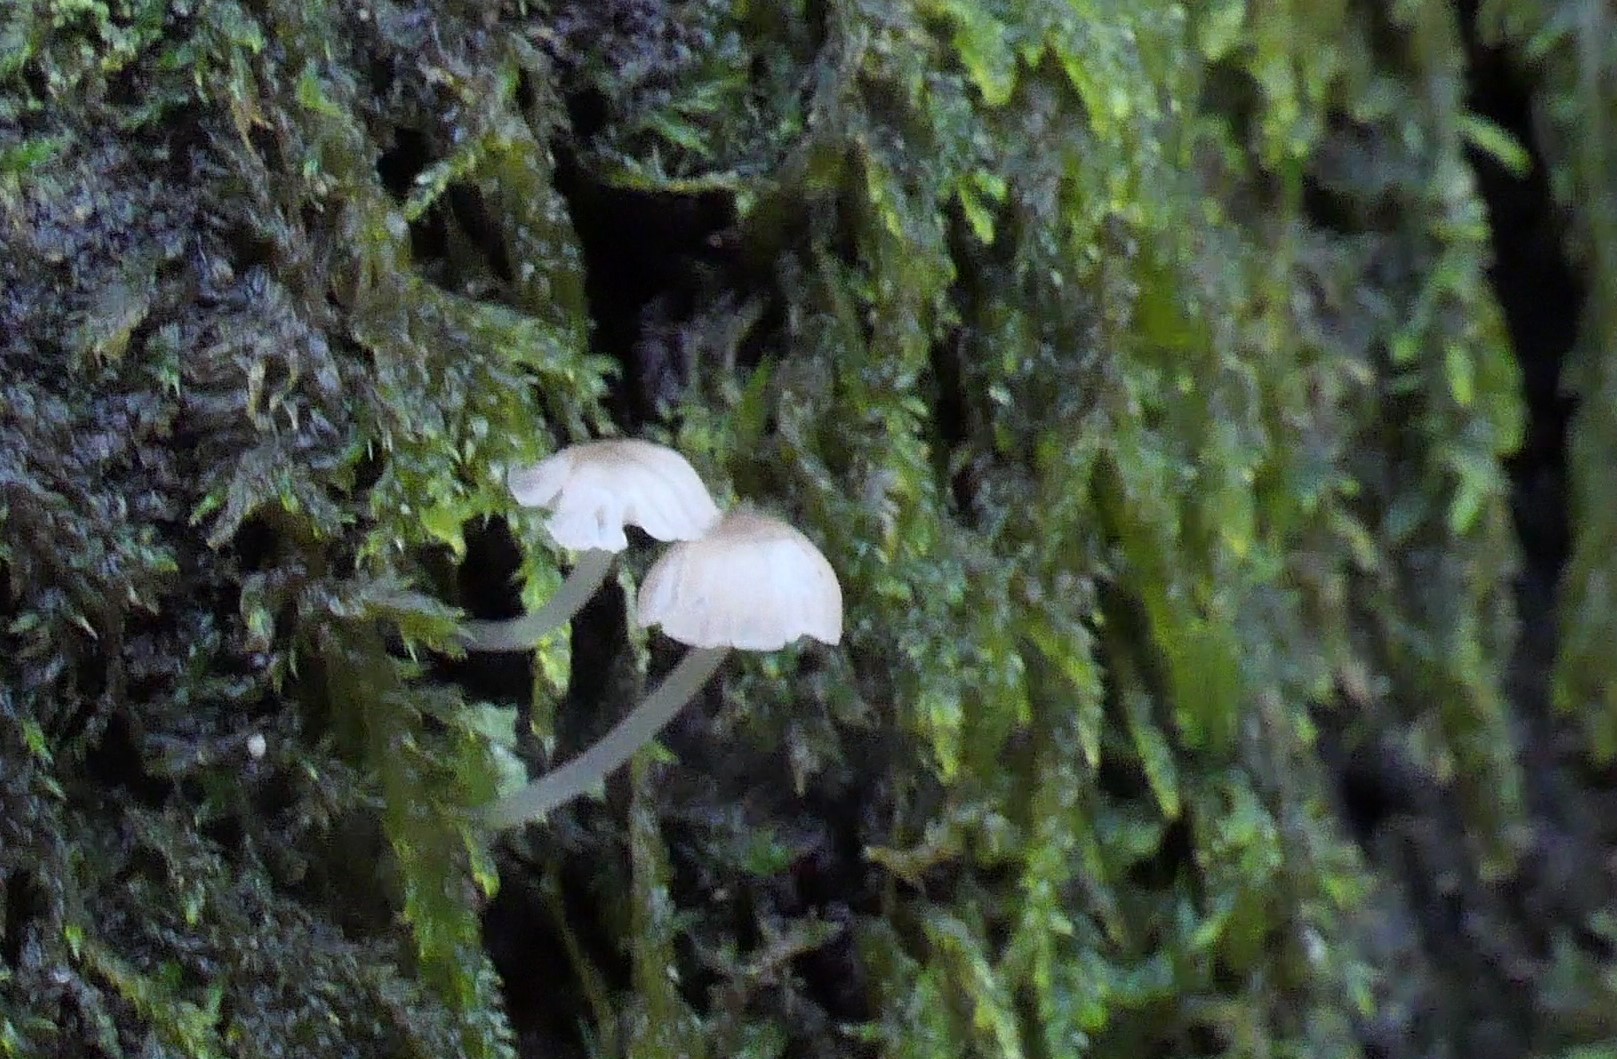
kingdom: Fungi
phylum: Basidiomycota
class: Agaricomycetes
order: Agaricales
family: Porotheleaceae
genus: Phloeomana
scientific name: Phloeomana speirea
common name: kvist-huesvamp
